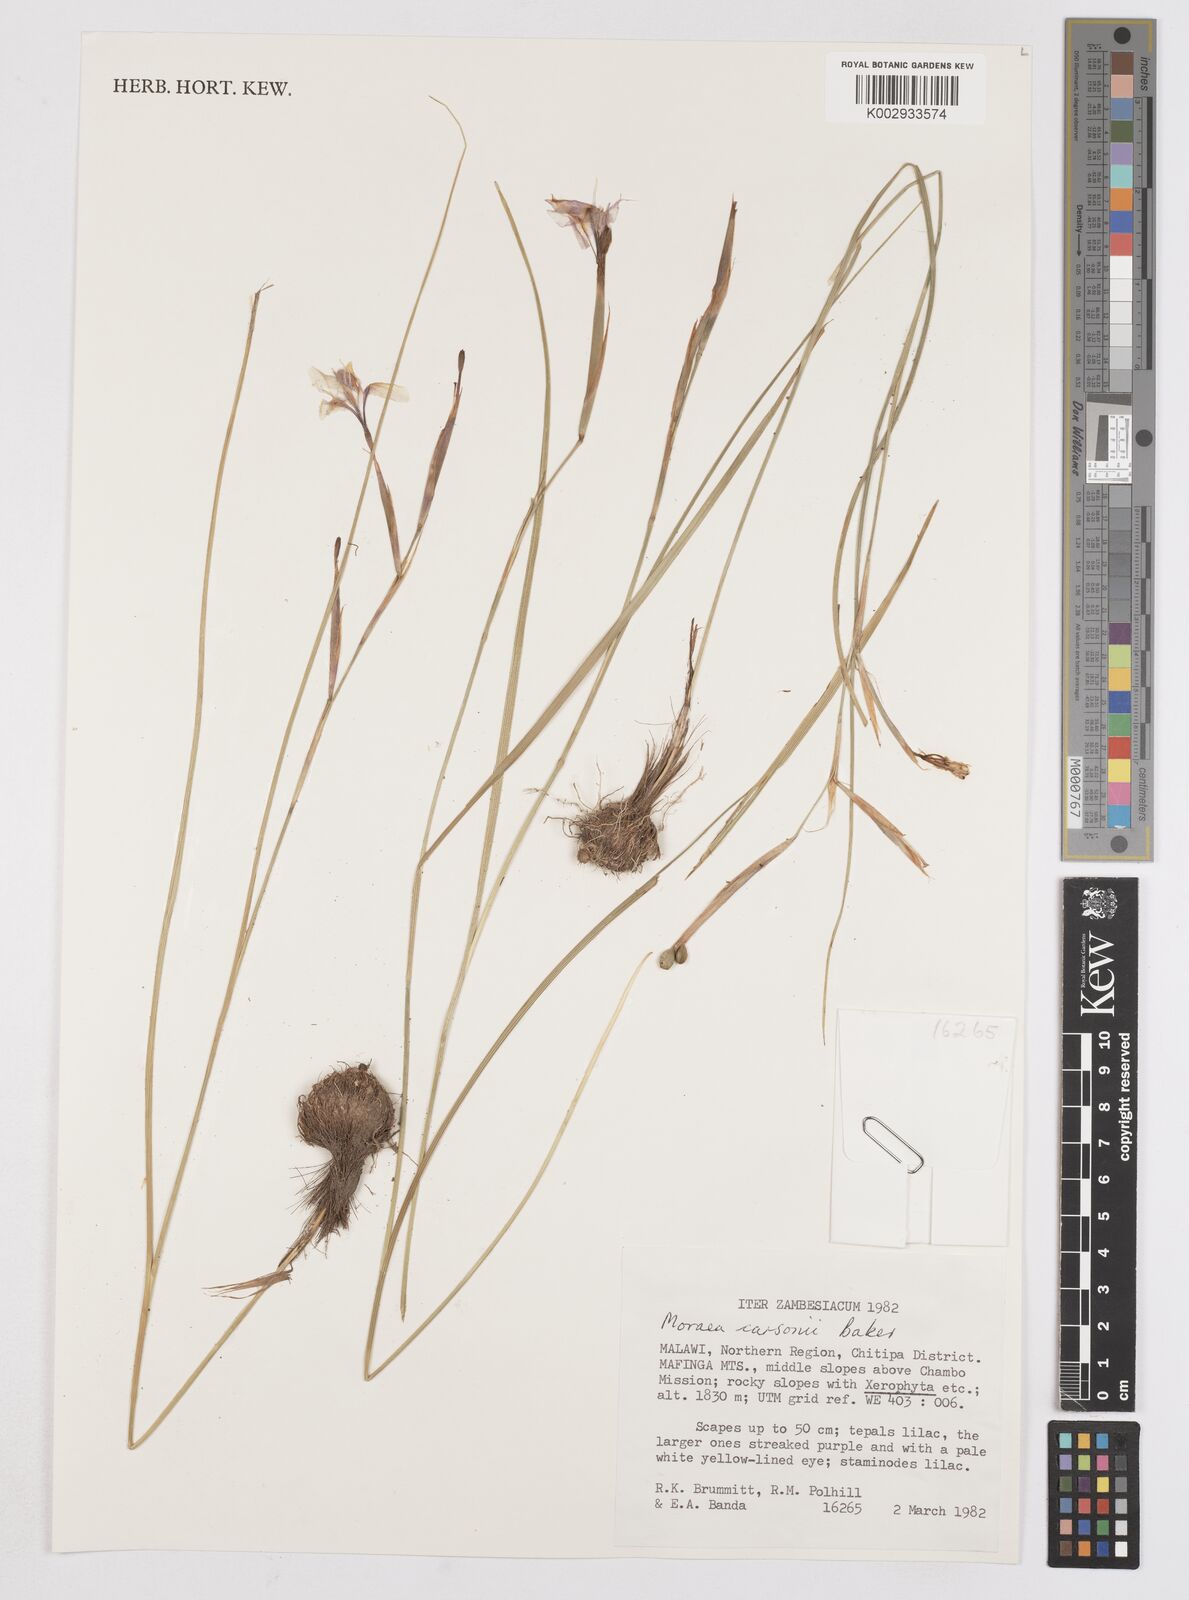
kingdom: Plantae
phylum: Tracheophyta
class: Liliopsida
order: Asparagales
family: Iridaceae
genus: Moraea
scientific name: Moraea carsonii
